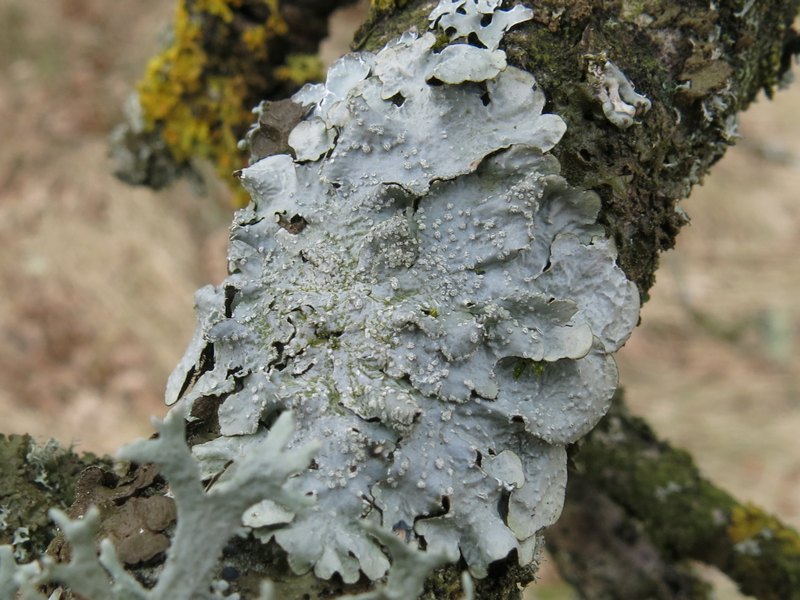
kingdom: Fungi
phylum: Ascomycota
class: Lecanoromycetes
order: Lecanorales
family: Parmeliaceae
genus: Punctelia
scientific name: Punctelia subrudecta
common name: punkt-skållav
